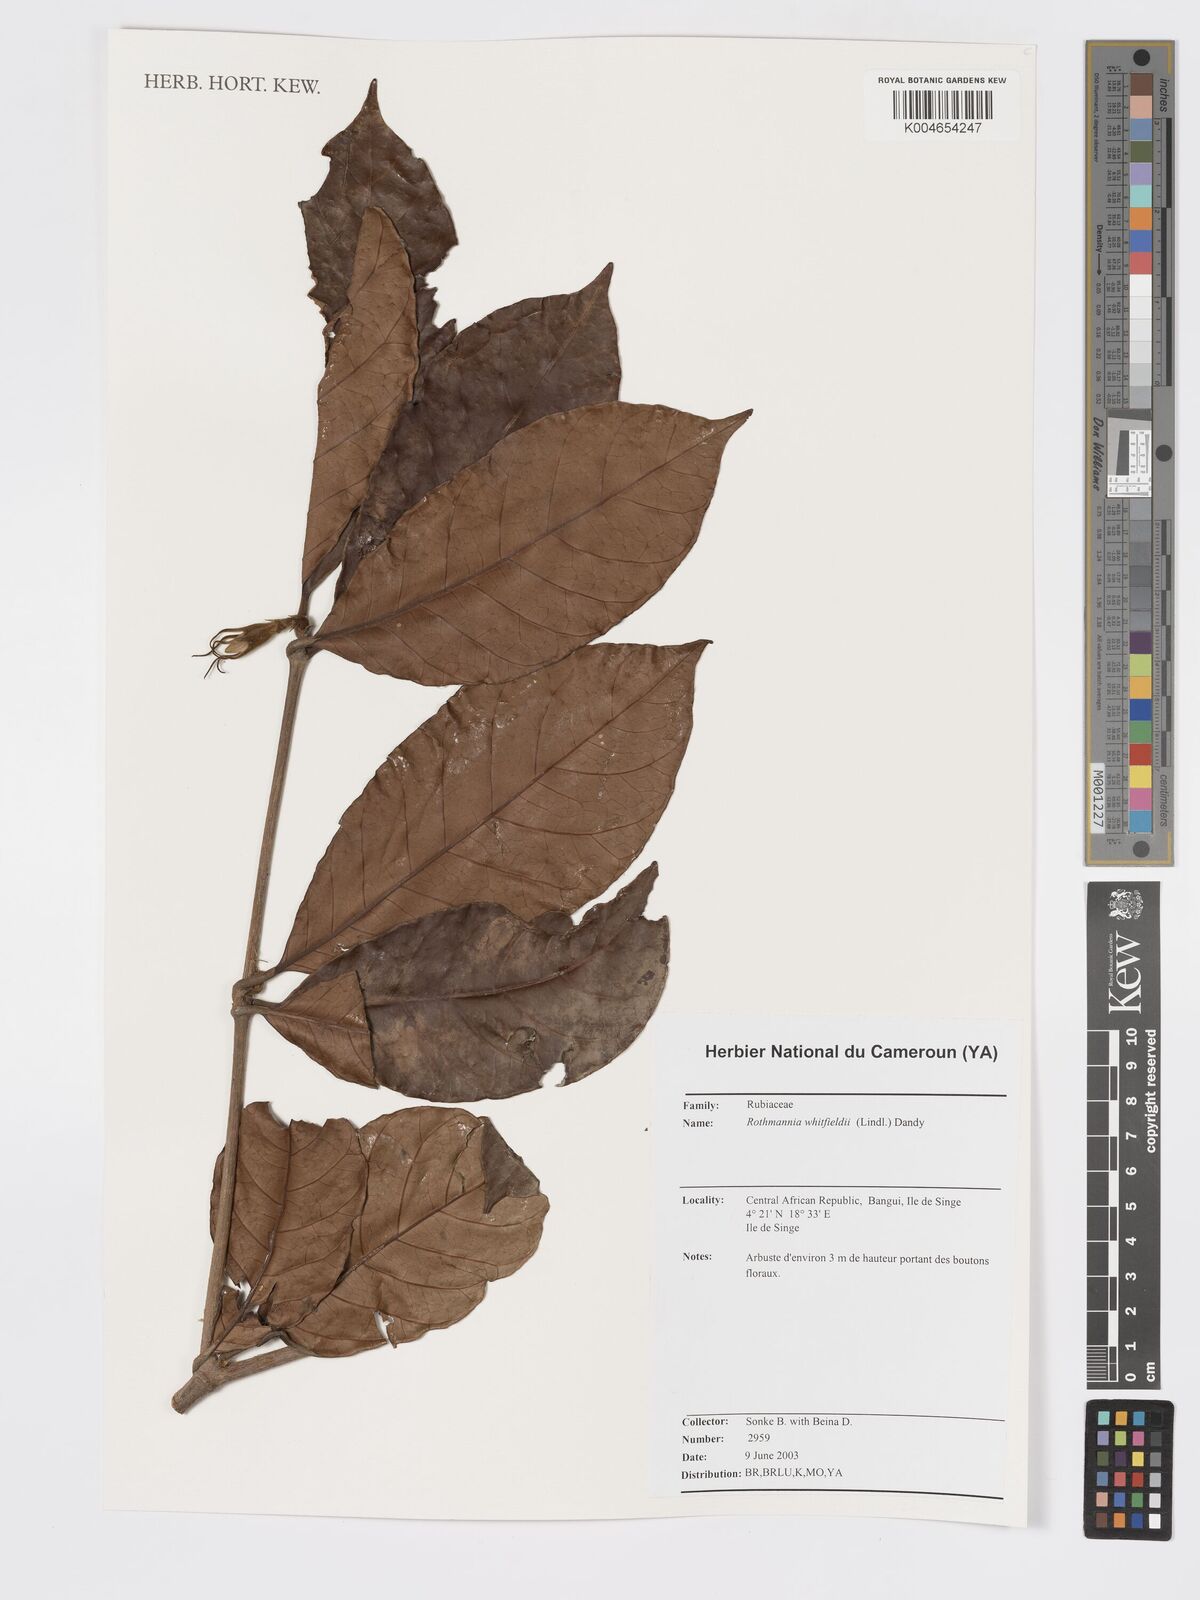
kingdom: Plantae
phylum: Tracheophyta
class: Magnoliopsida
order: Gentianales
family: Rubiaceae
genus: Rothmannia
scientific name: Rothmannia whitfieldii
